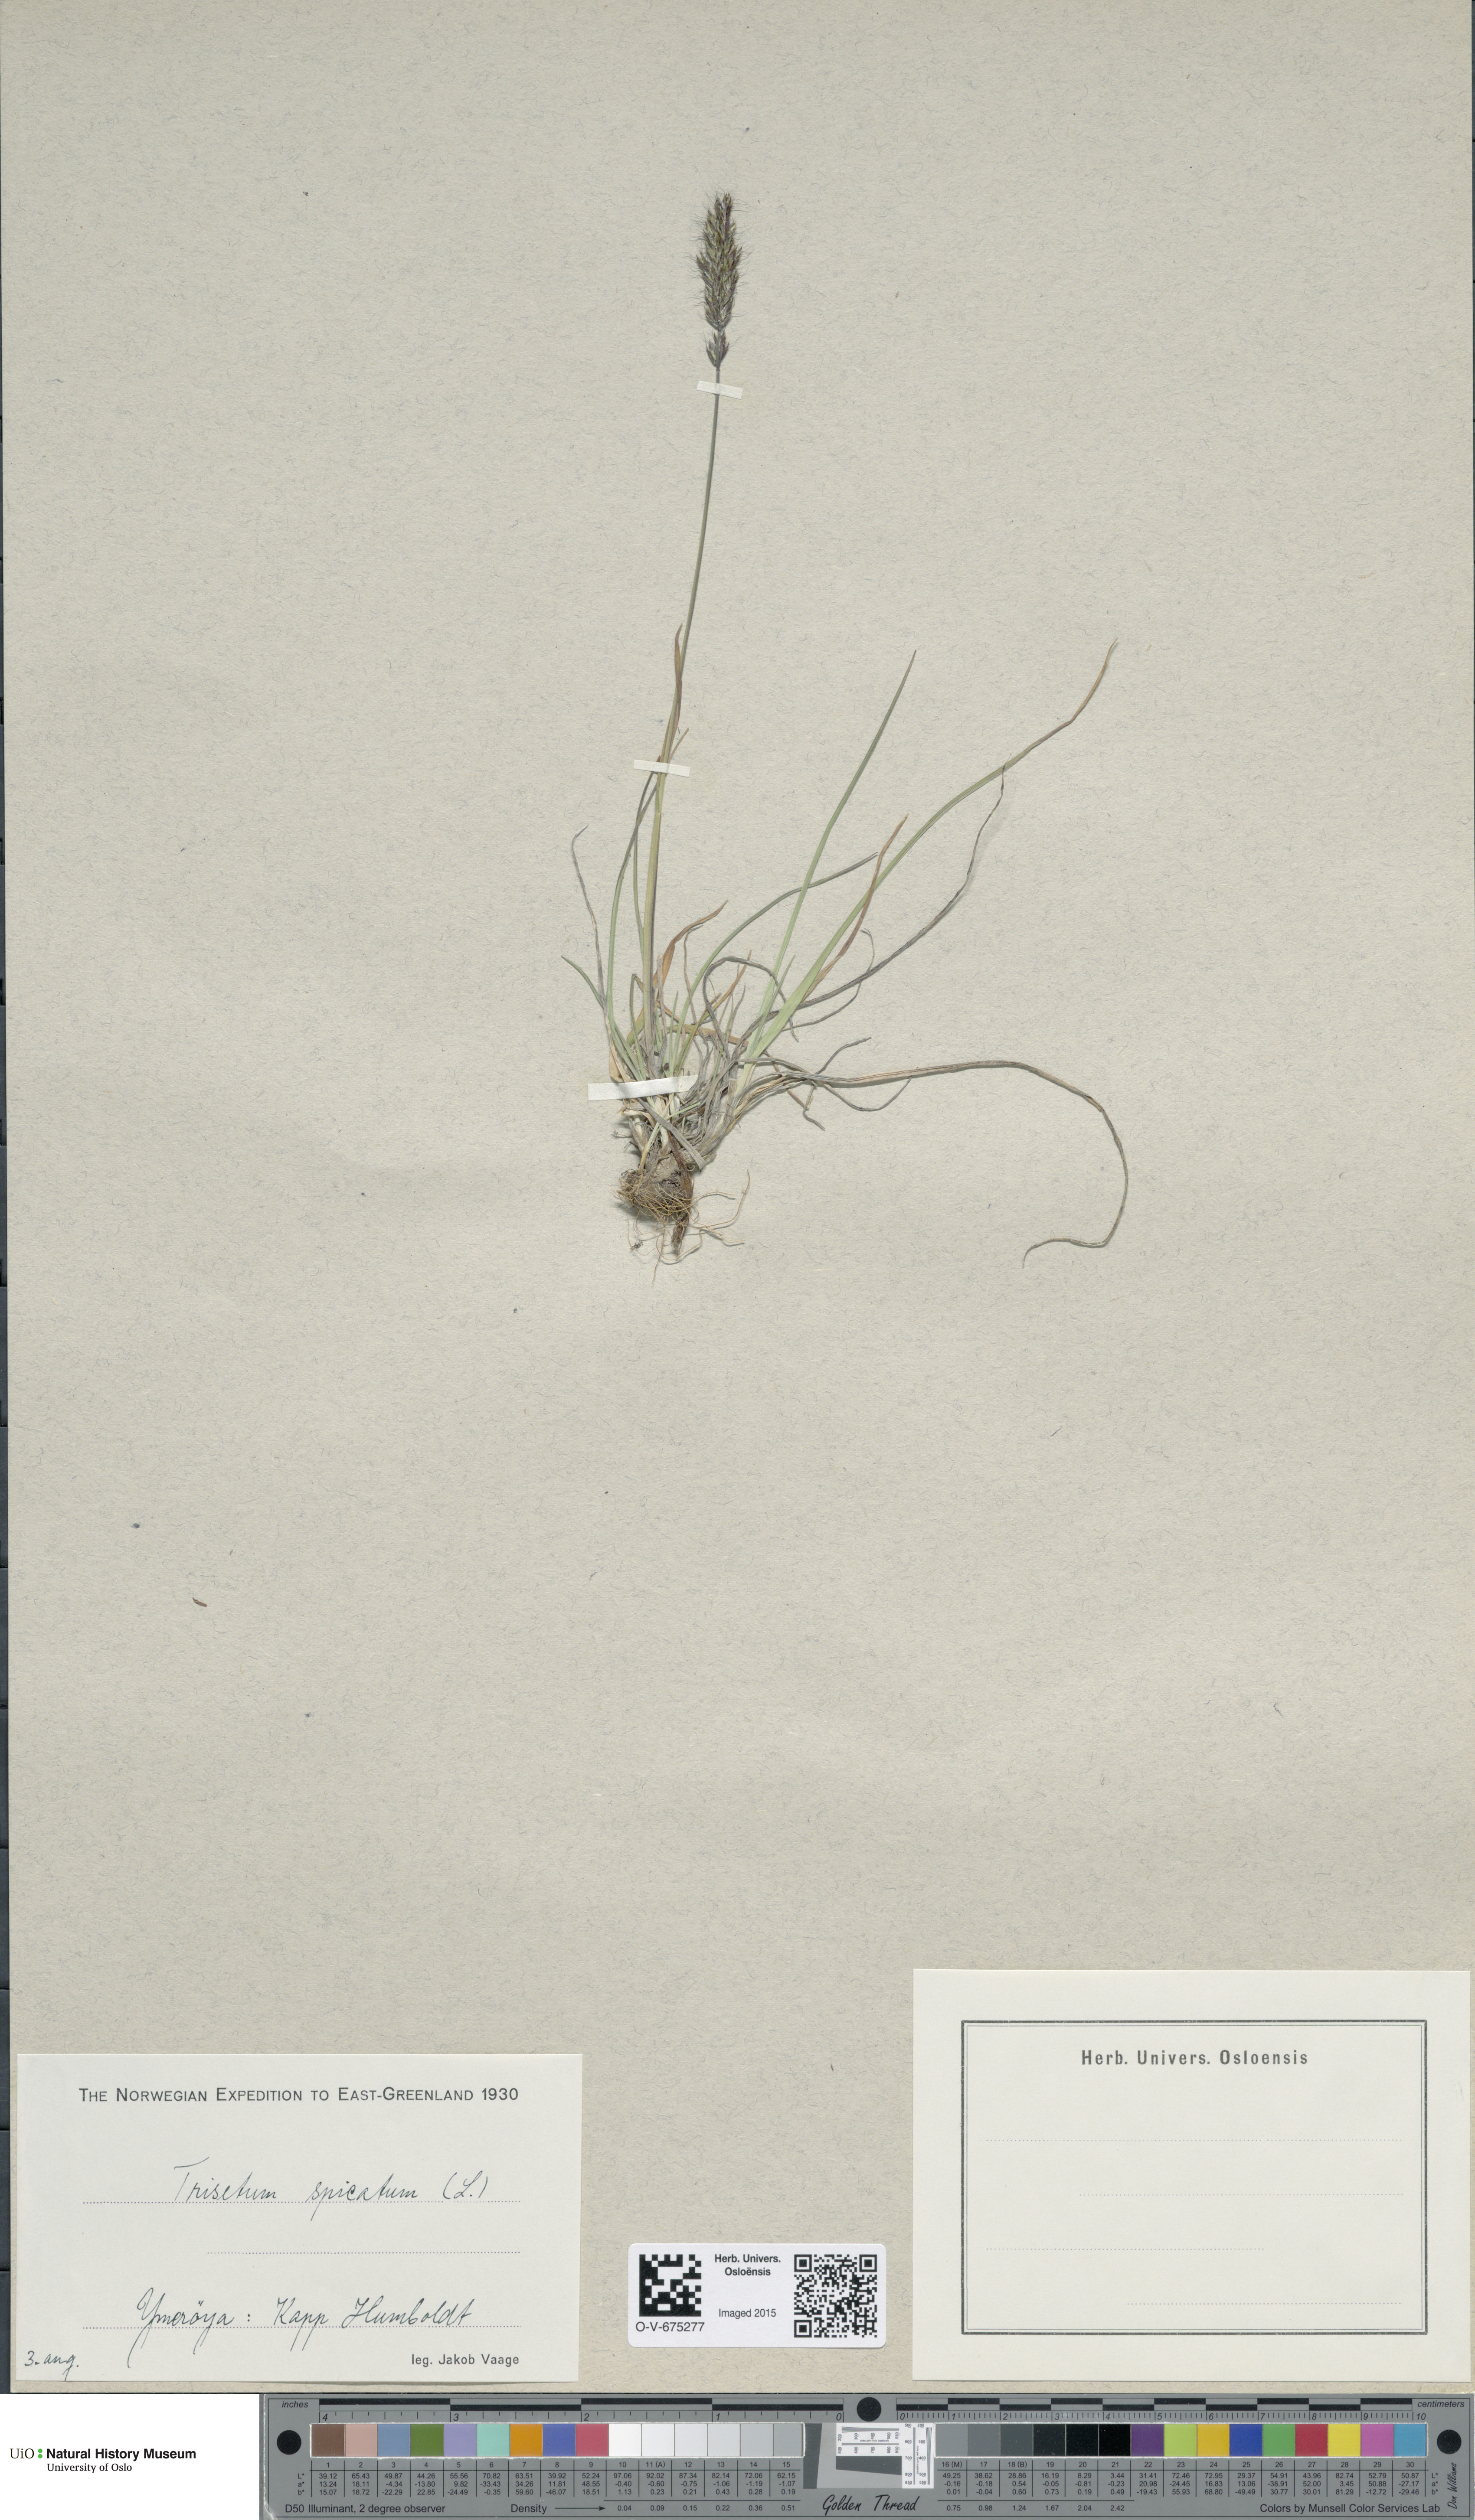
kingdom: Plantae
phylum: Tracheophyta
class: Liliopsida
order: Poales
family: Poaceae
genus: Koeleria
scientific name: Koeleria spicata
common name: Mountain trisetum
